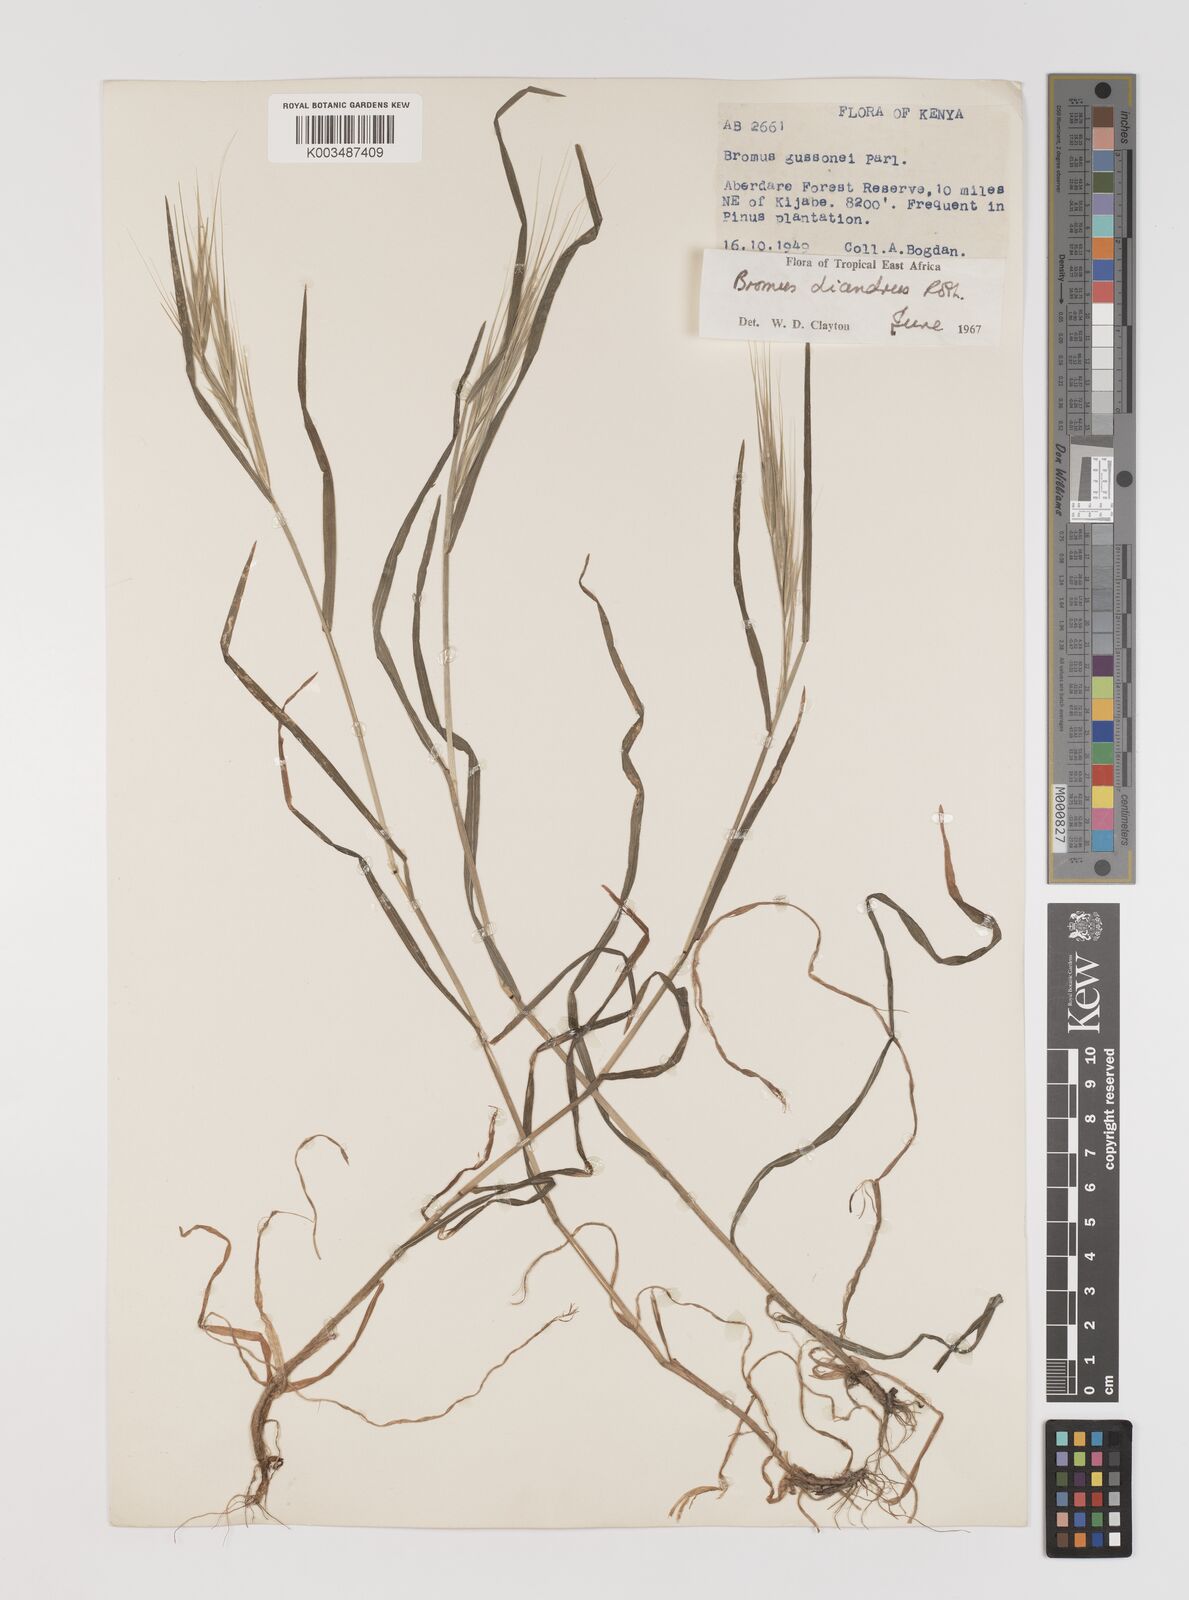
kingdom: Plantae
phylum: Tracheophyta
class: Liliopsida
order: Poales
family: Poaceae
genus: Bromus
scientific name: Bromus diandrus
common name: Ripgut brome
